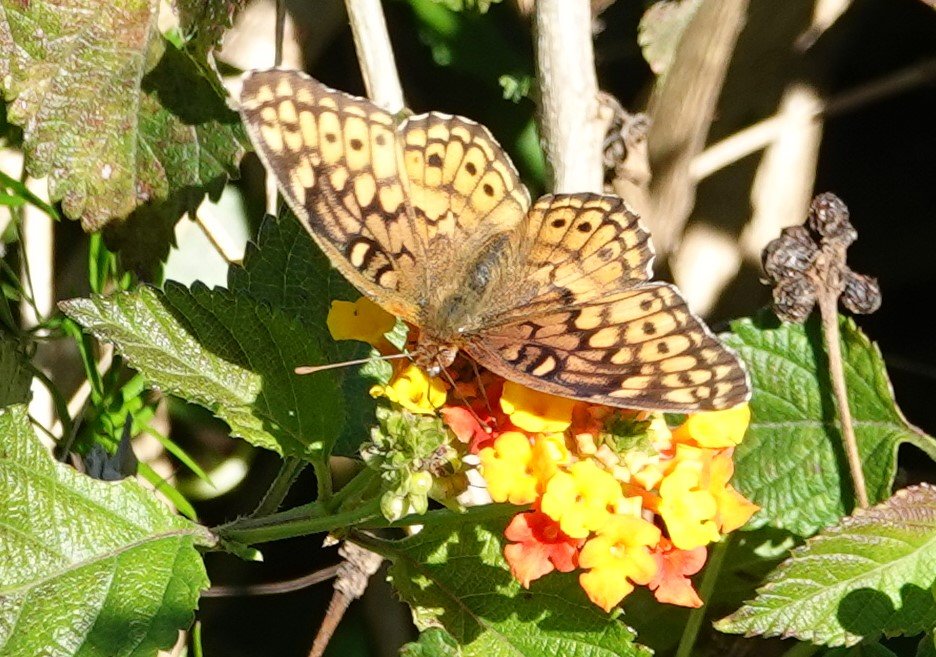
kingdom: Animalia
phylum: Arthropoda
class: Insecta
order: Lepidoptera
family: Nymphalidae
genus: Euptoieta
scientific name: Euptoieta claudia
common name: Variegated Fritillary
